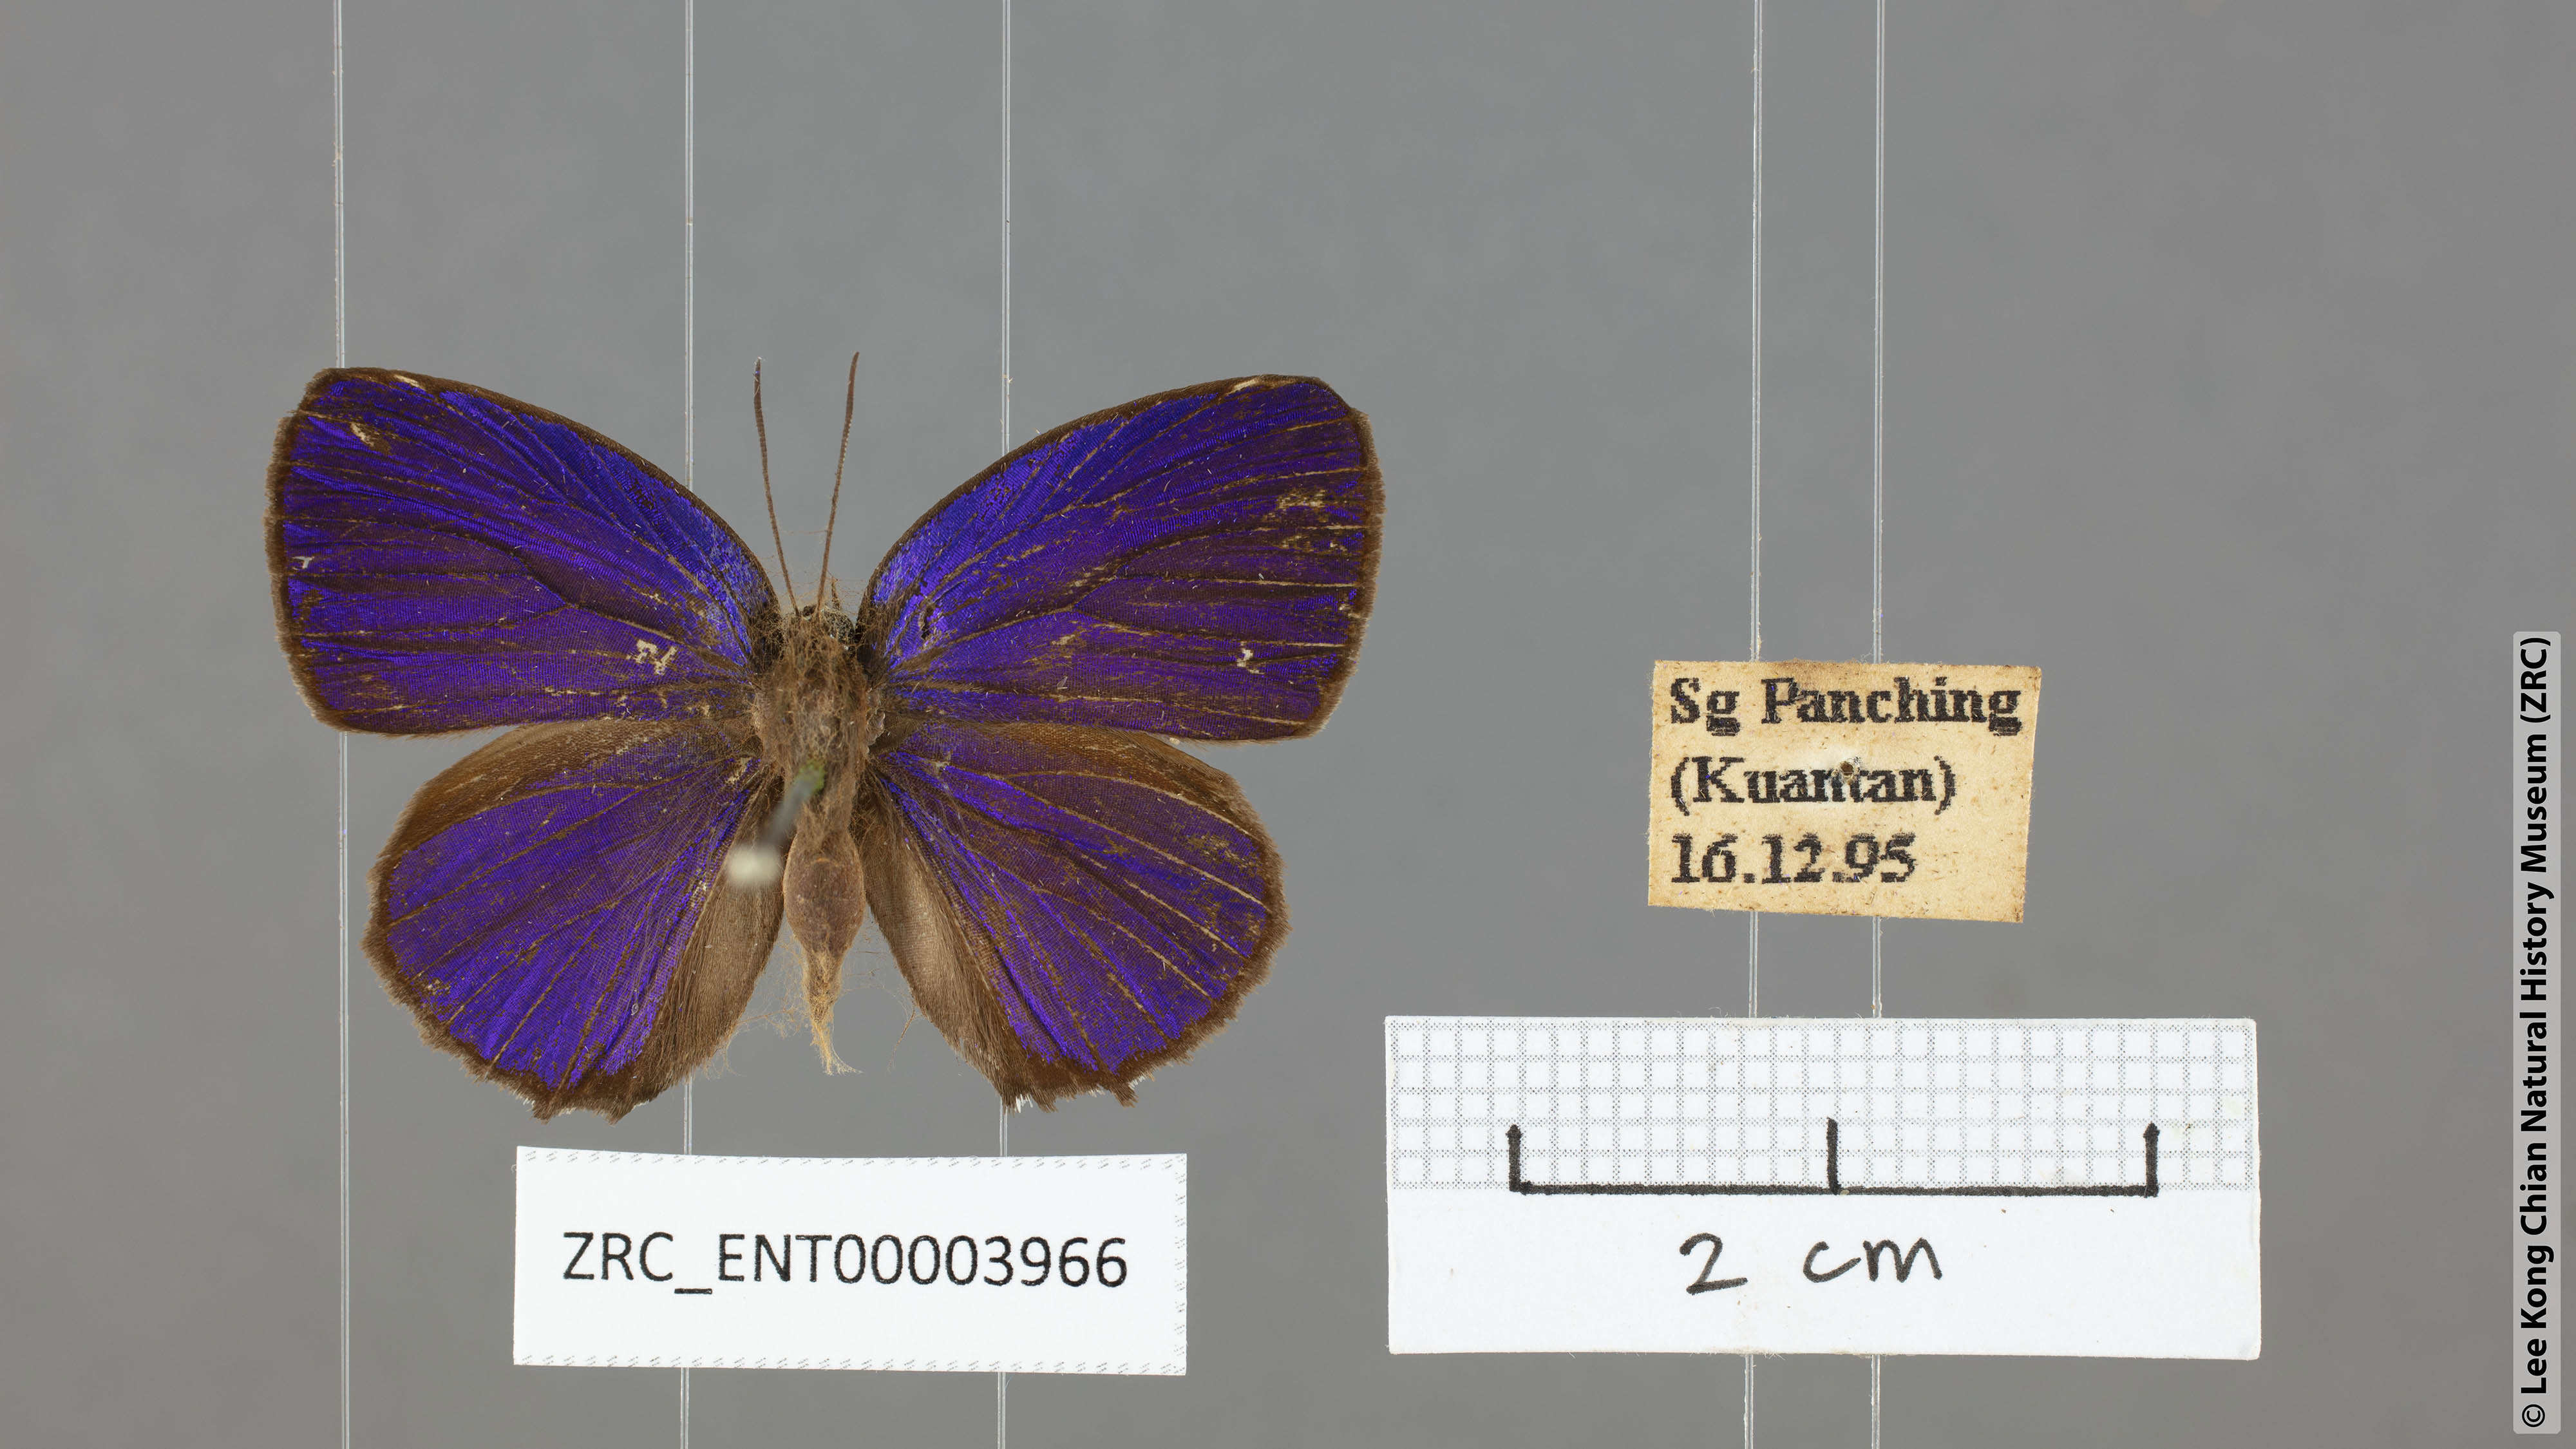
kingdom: Animalia
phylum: Arthropoda
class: Insecta
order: Lepidoptera
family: Lycaenidae
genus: Arhopala
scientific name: Arhopala hypomuta
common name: Violet oakblue
